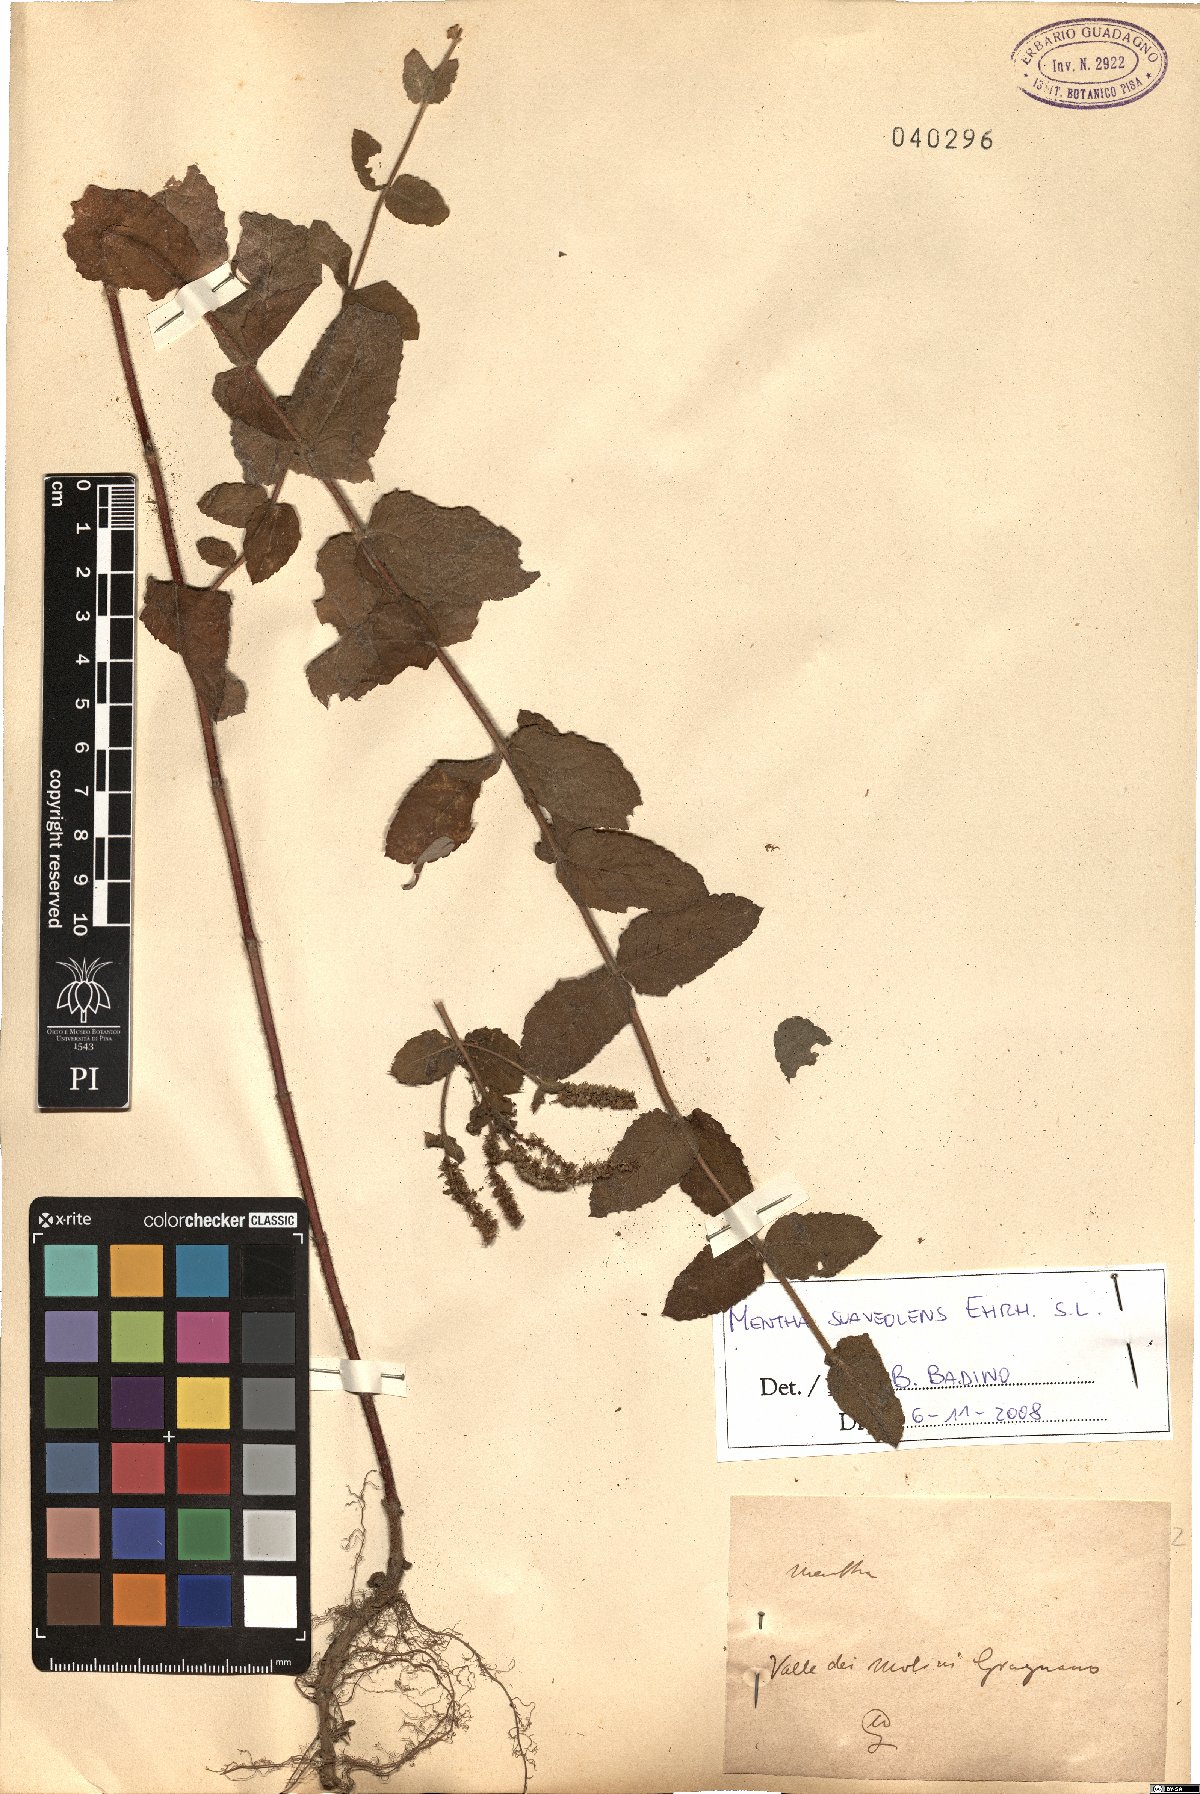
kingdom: Plantae
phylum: Tracheophyta
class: Magnoliopsida
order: Lamiales
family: Lamiaceae
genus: Mentha
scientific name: Mentha suaveolens
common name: Apple mint
